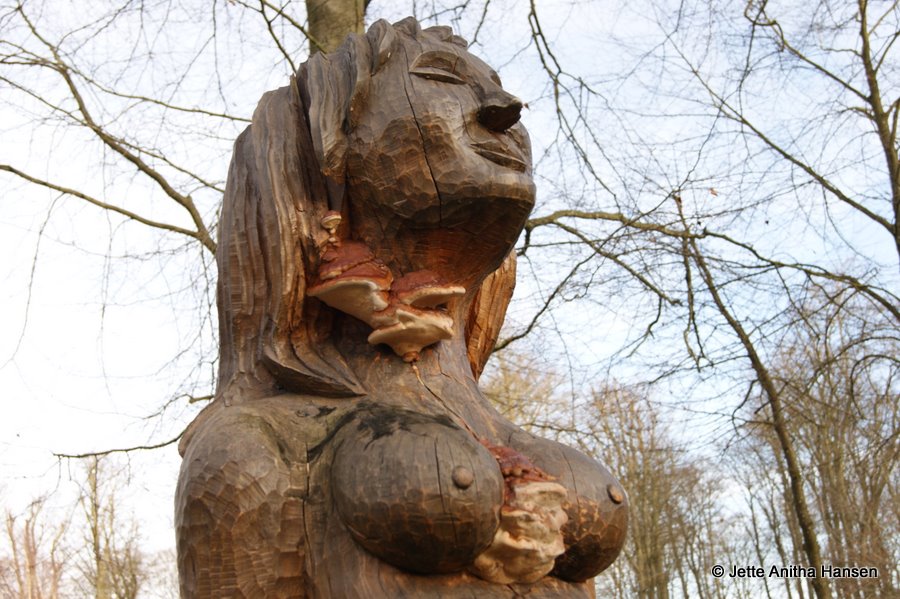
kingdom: Fungi
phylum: Basidiomycota
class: Agaricomycetes
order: Polyporales
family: Fomitopsidaceae
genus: Fomitopsis
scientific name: Fomitopsis pinicola
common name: randbæltet hovporesvamp
